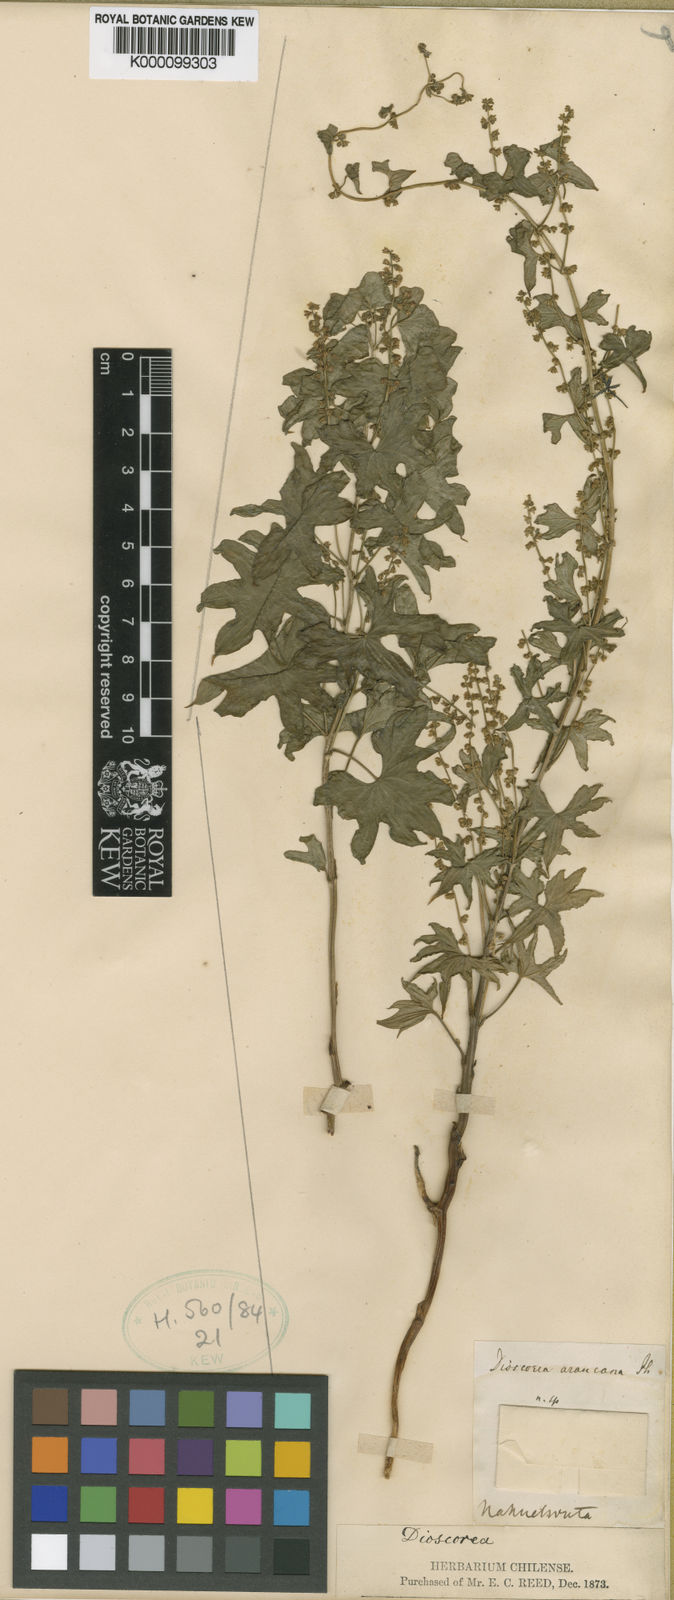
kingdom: Plantae
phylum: Tracheophyta
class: Liliopsida
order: Dioscoreales
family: Dioscoreaceae
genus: Dioscorea
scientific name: Dioscorea araucana
